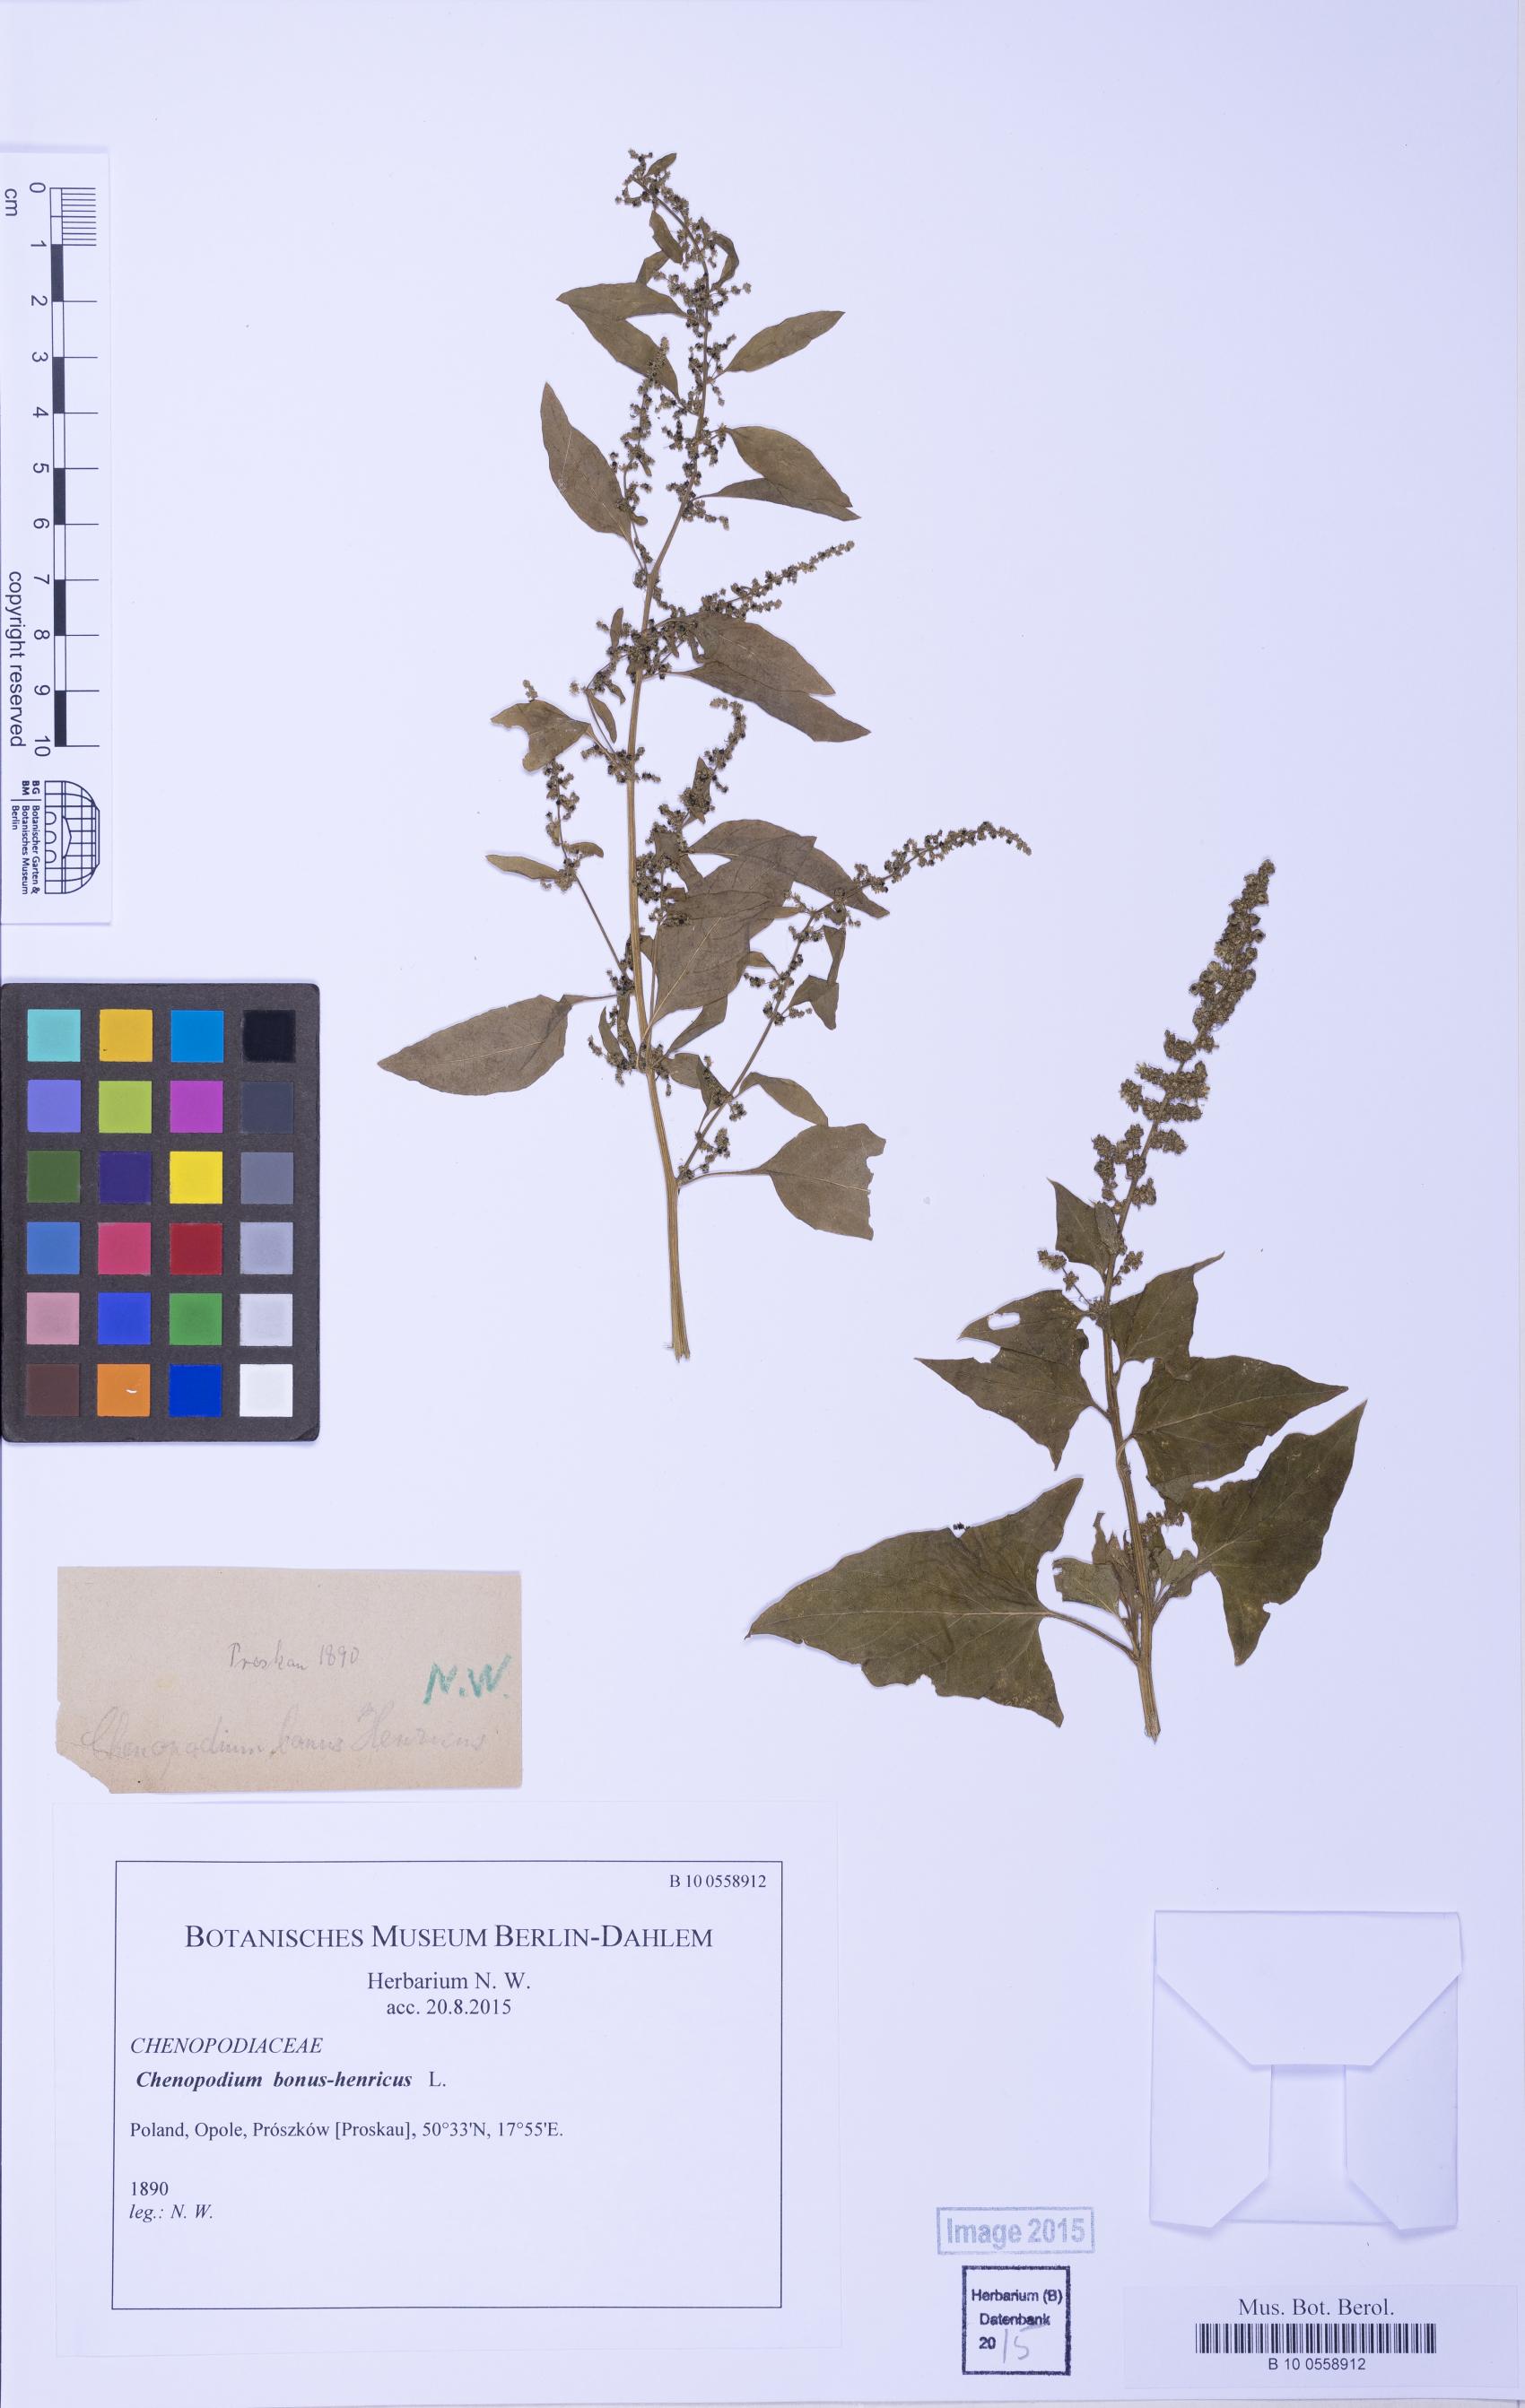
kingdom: Plantae
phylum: Tracheophyta
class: Magnoliopsida
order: Caryophyllales
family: Amaranthaceae
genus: Blitum
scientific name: Blitum bonus-henricus
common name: Good king henry
